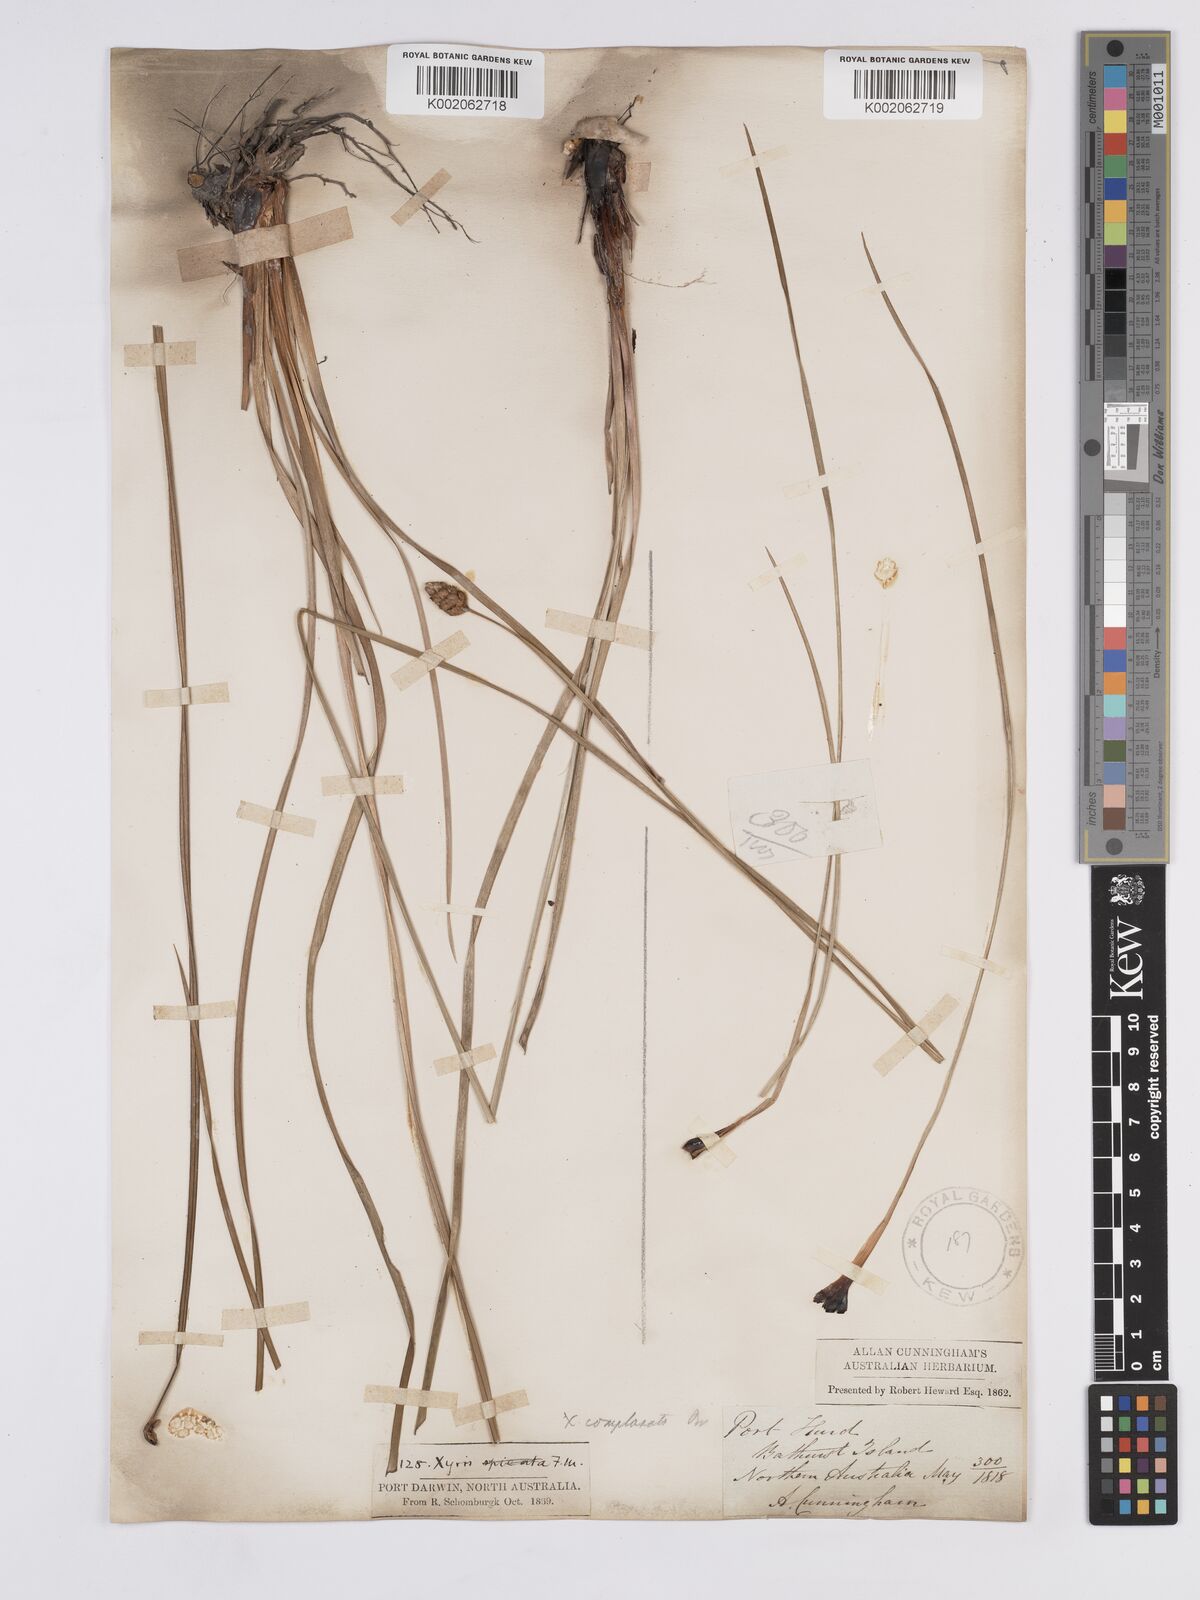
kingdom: Plantae
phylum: Tracheophyta
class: Liliopsida
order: Poales
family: Xyridaceae
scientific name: Xyridaceae
